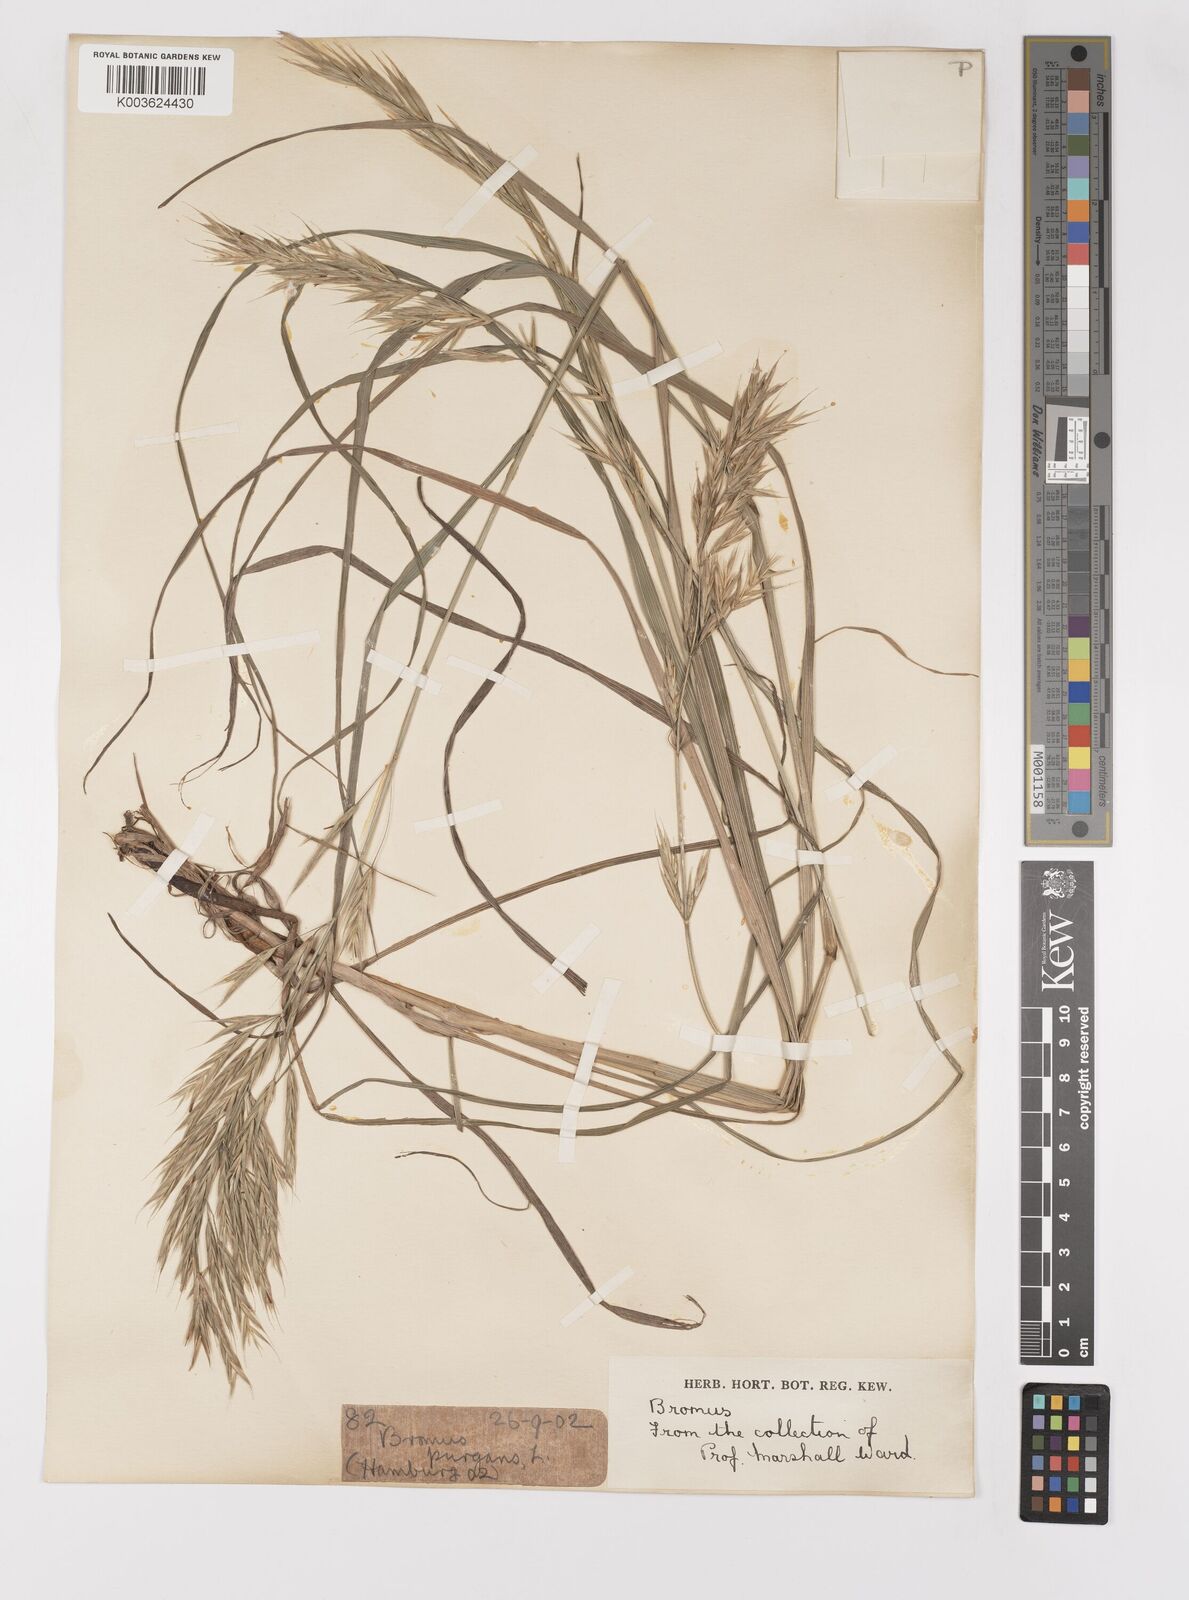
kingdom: Plantae
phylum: Tracheophyta
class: Liliopsida
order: Poales
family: Poaceae
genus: Bromus
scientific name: Bromus
